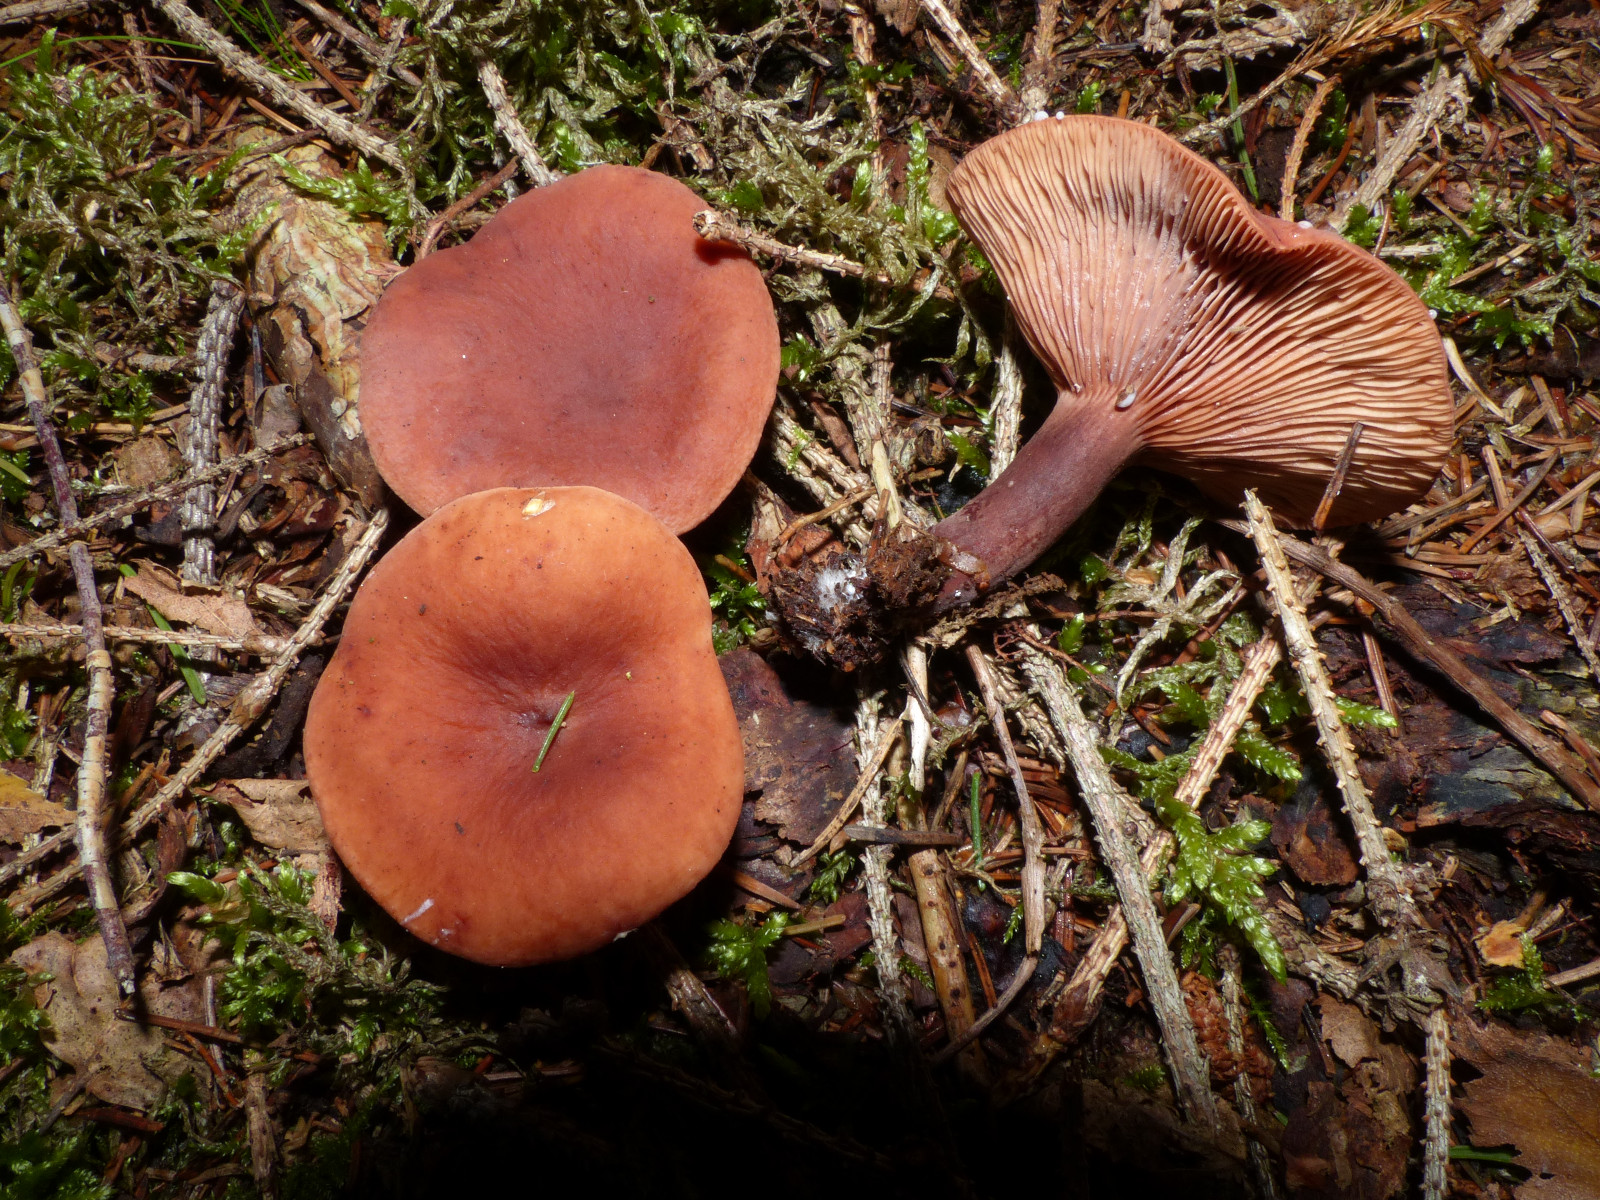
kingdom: Fungi
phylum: Basidiomycota
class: Agaricomycetes
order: Russulales
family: Russulaceae
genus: Lactarius
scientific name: Lactarius camphoratus
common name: kamfer-mælkehat
